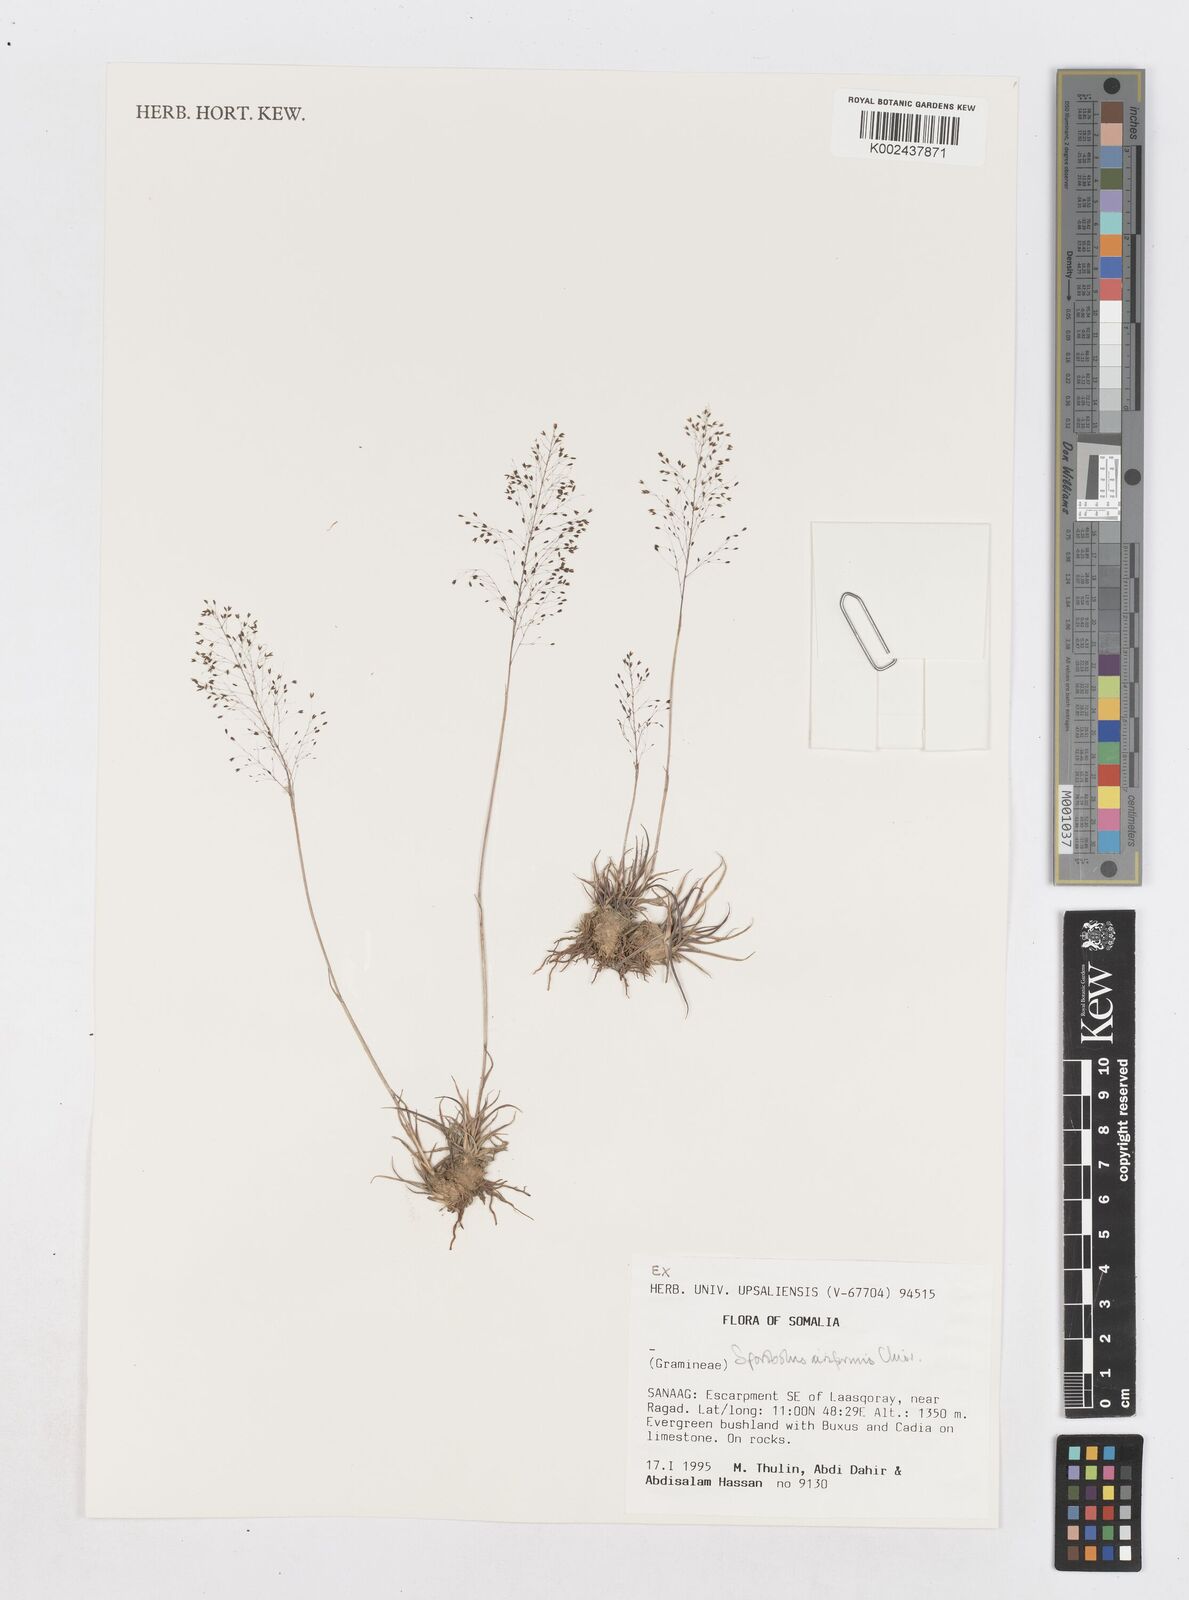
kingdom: Plantae
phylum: Tracheophyta
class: Liliopsida
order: Poales
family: Poaceae
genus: Sporobolus
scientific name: Sporobolus airiformis
